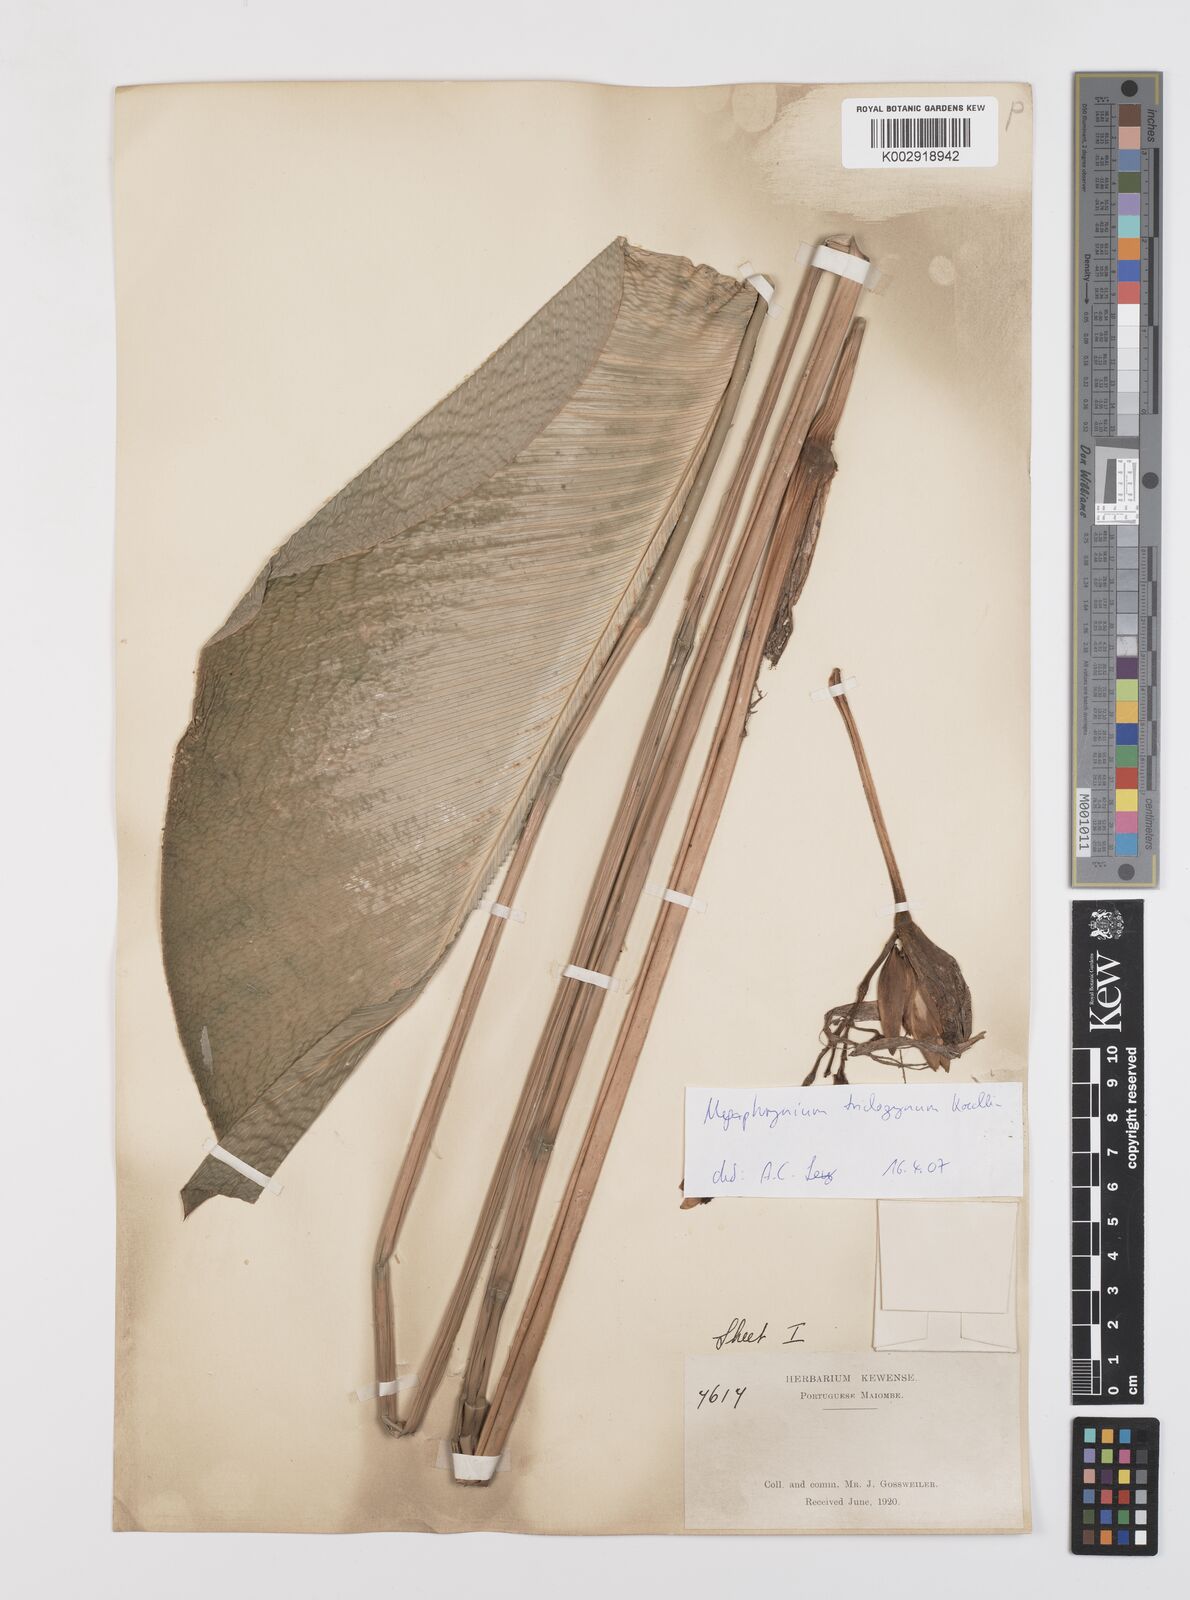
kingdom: Plantae
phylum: Tracheophyta
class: Liliopsida
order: Zingiberales
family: Marantaceae
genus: Megaphrynium
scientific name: Megaphrynium trichogynum
